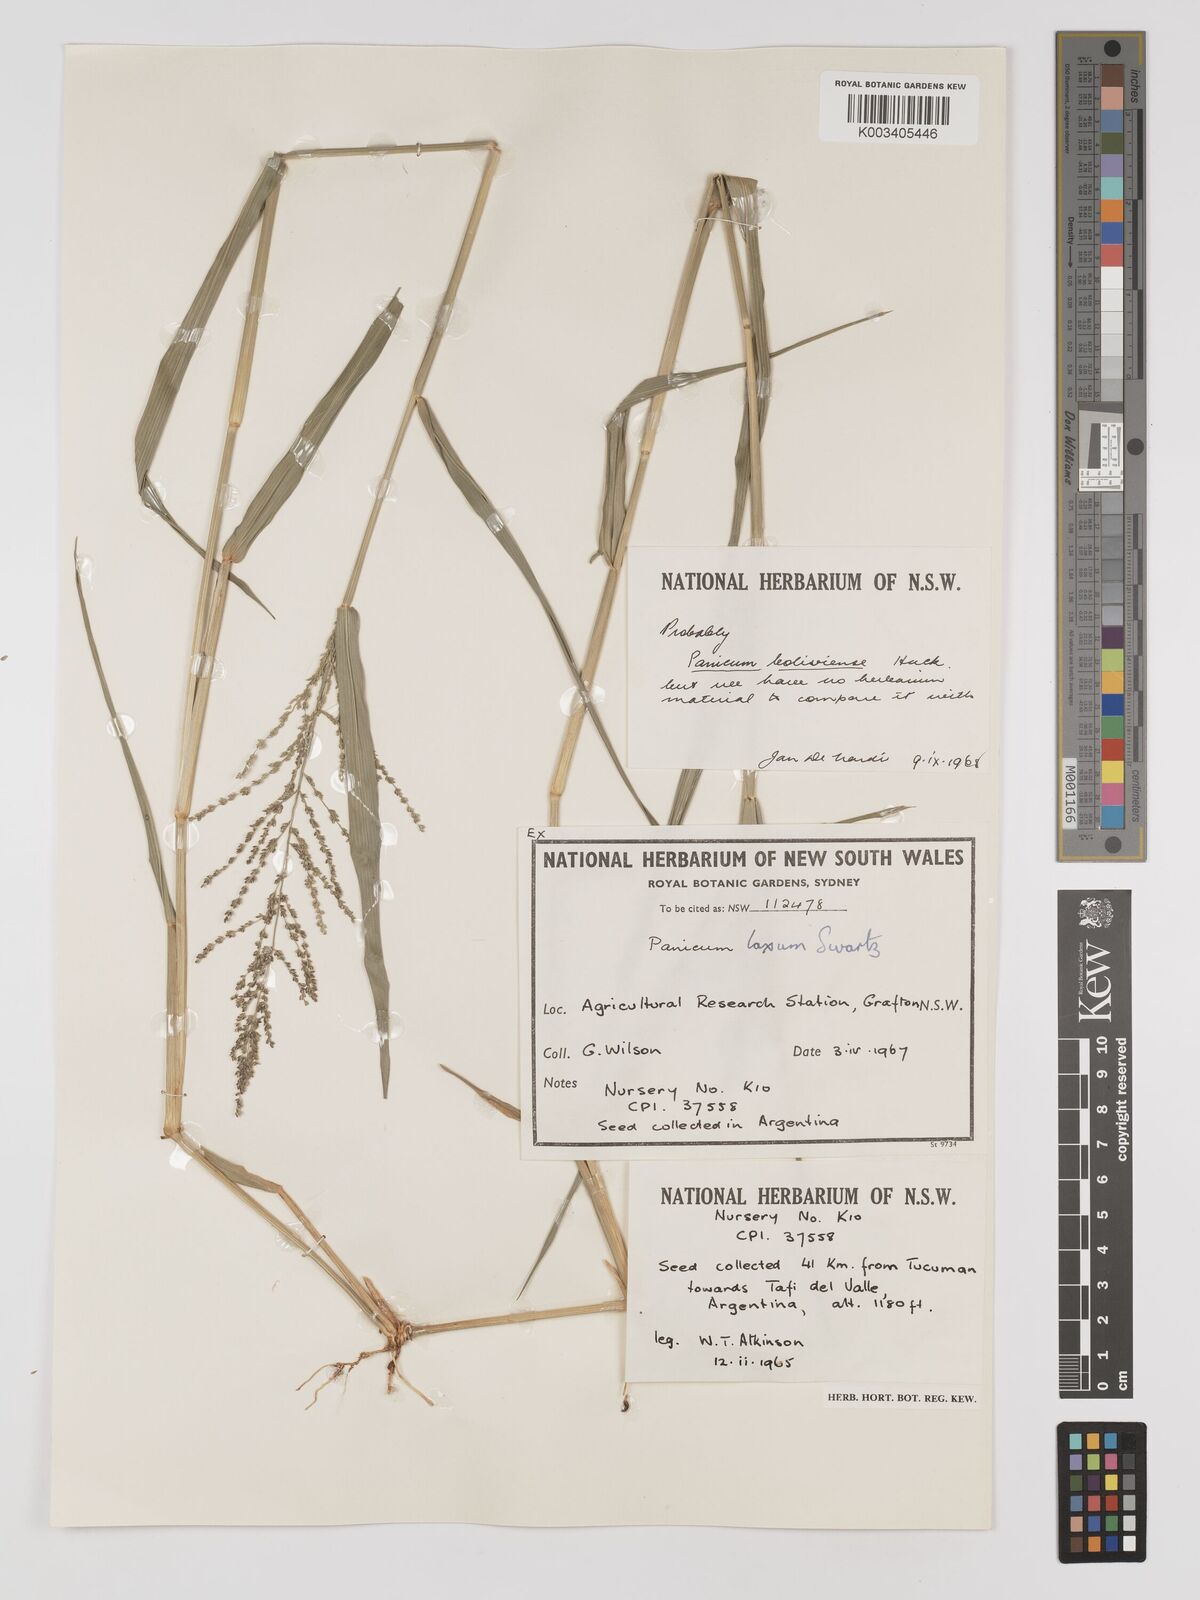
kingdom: Plantae
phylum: Tracheophyta
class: Liliopsida
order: Poales
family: Poaceae
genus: Steinchisma
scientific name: Steinchisma laxum
